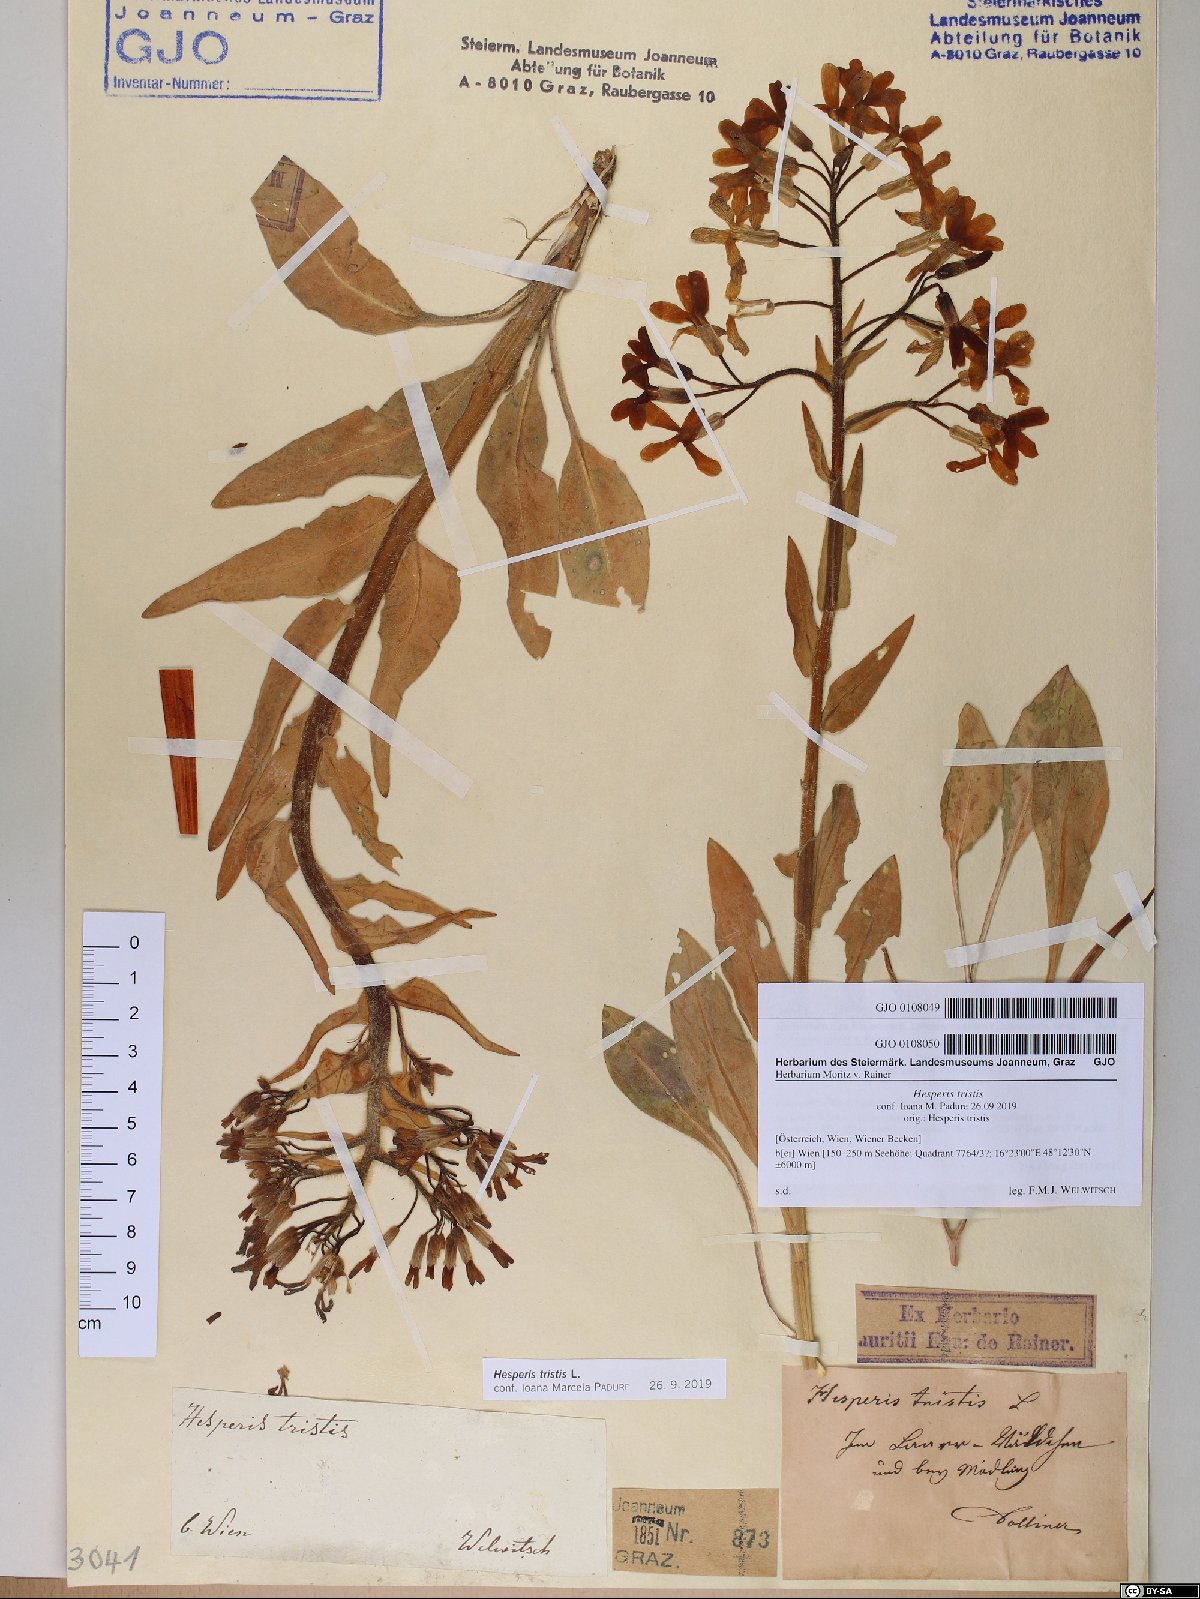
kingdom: Plantae
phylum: Tracheophyta
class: Magnoliopsida
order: Brassicales
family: Brassicaceae
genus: Hesperis
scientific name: Hesperis tristis
